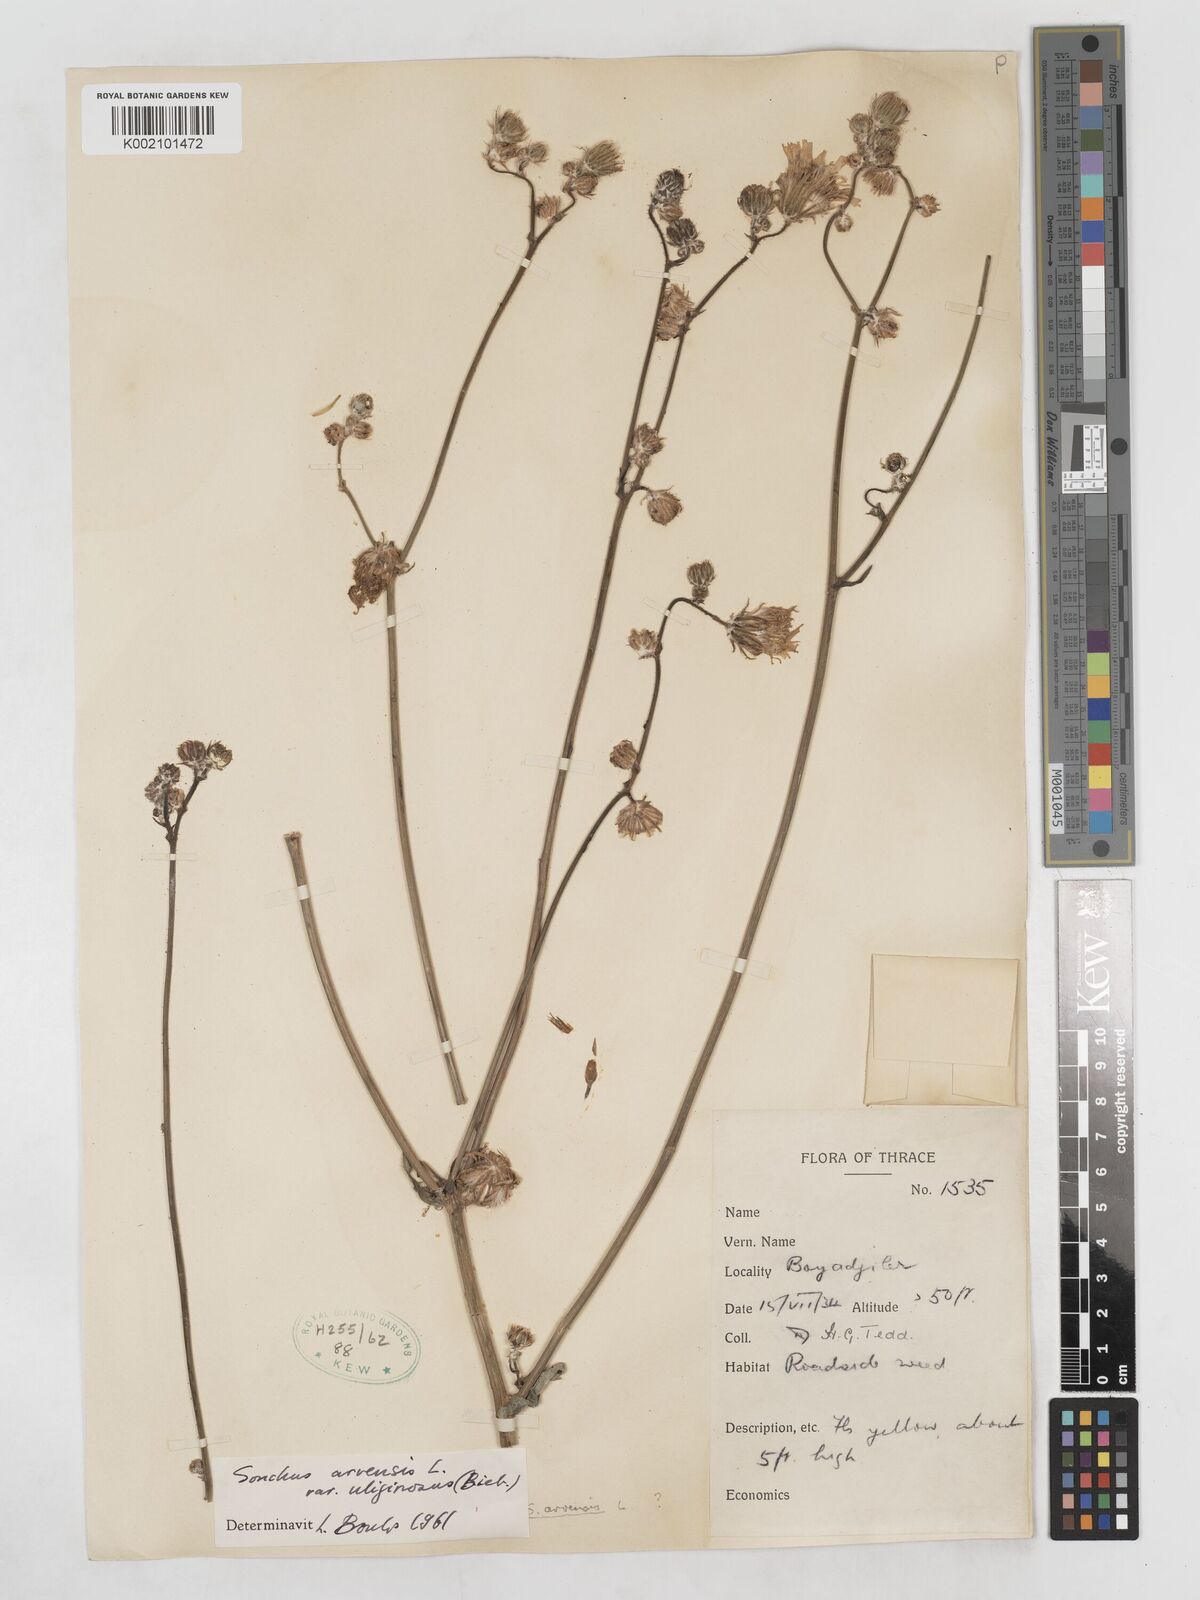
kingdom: Plantae
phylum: Tracheophyta
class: Magnoliopsida
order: Asterales
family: Asteraceae
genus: Sonchus
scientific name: Sonchus arvensis
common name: Perennial sow-thistle
